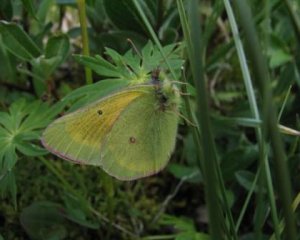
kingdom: Animalia
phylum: Arthropoda
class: Insecta
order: Lepidoptera
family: Pieridae
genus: Colias
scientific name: Colias meadii
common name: Mead's Sulphur
